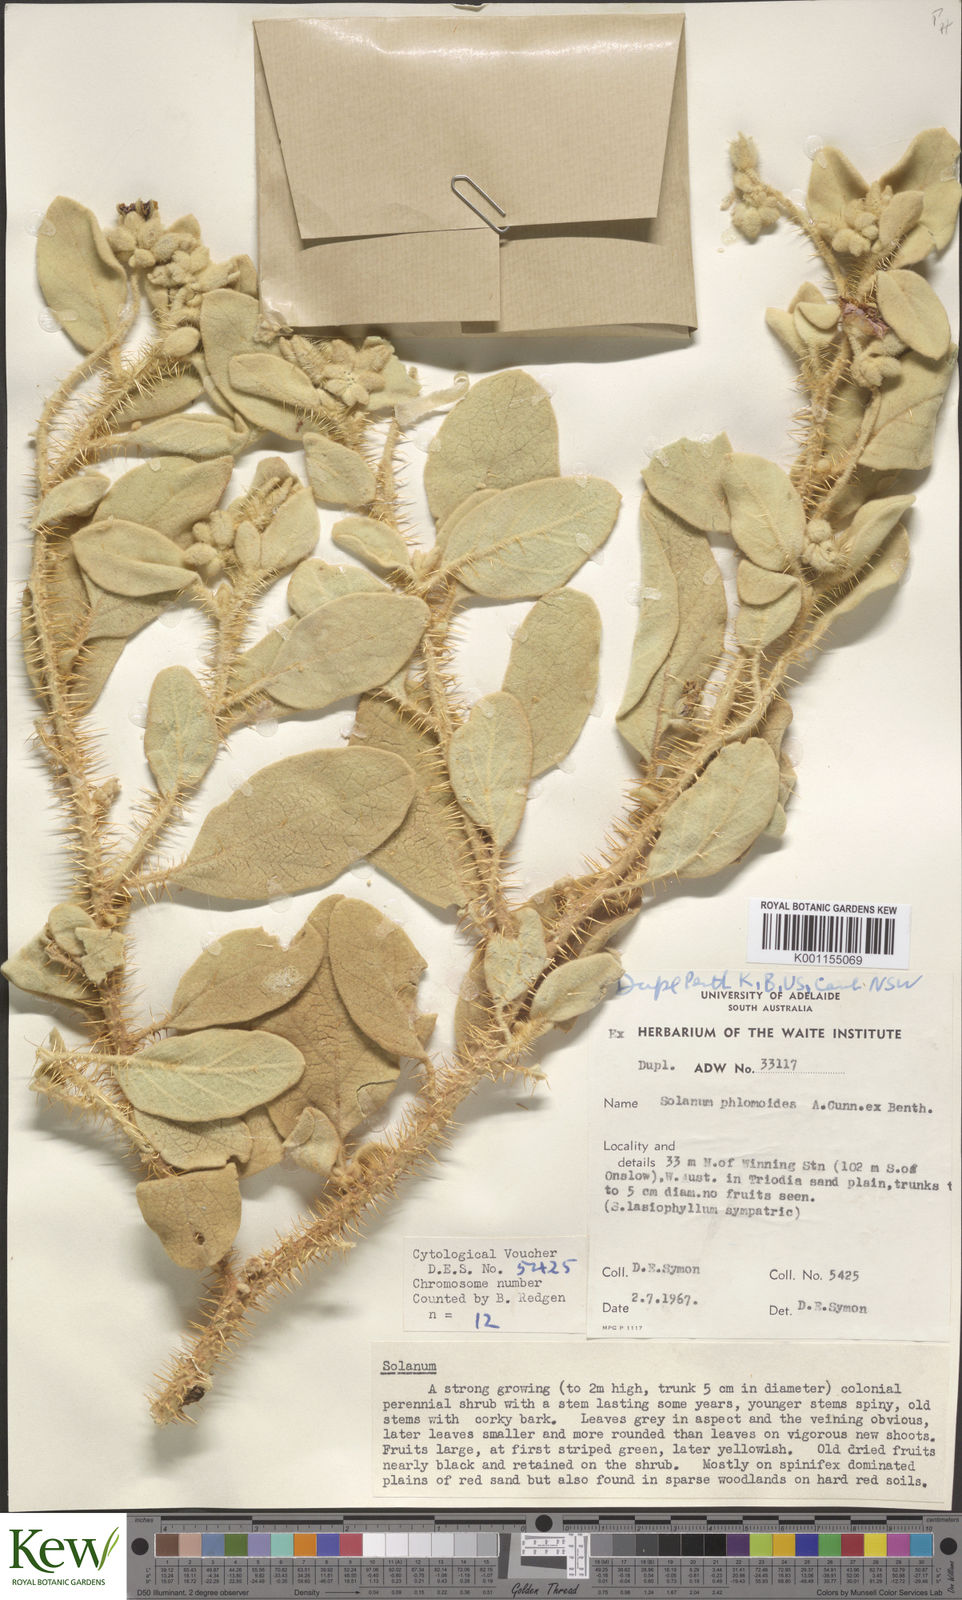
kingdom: Plantae
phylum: Tracheophyta
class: Magnoliopsida
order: Solanales
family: Solanaceae
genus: Solanum
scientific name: Solanum phlomoides
